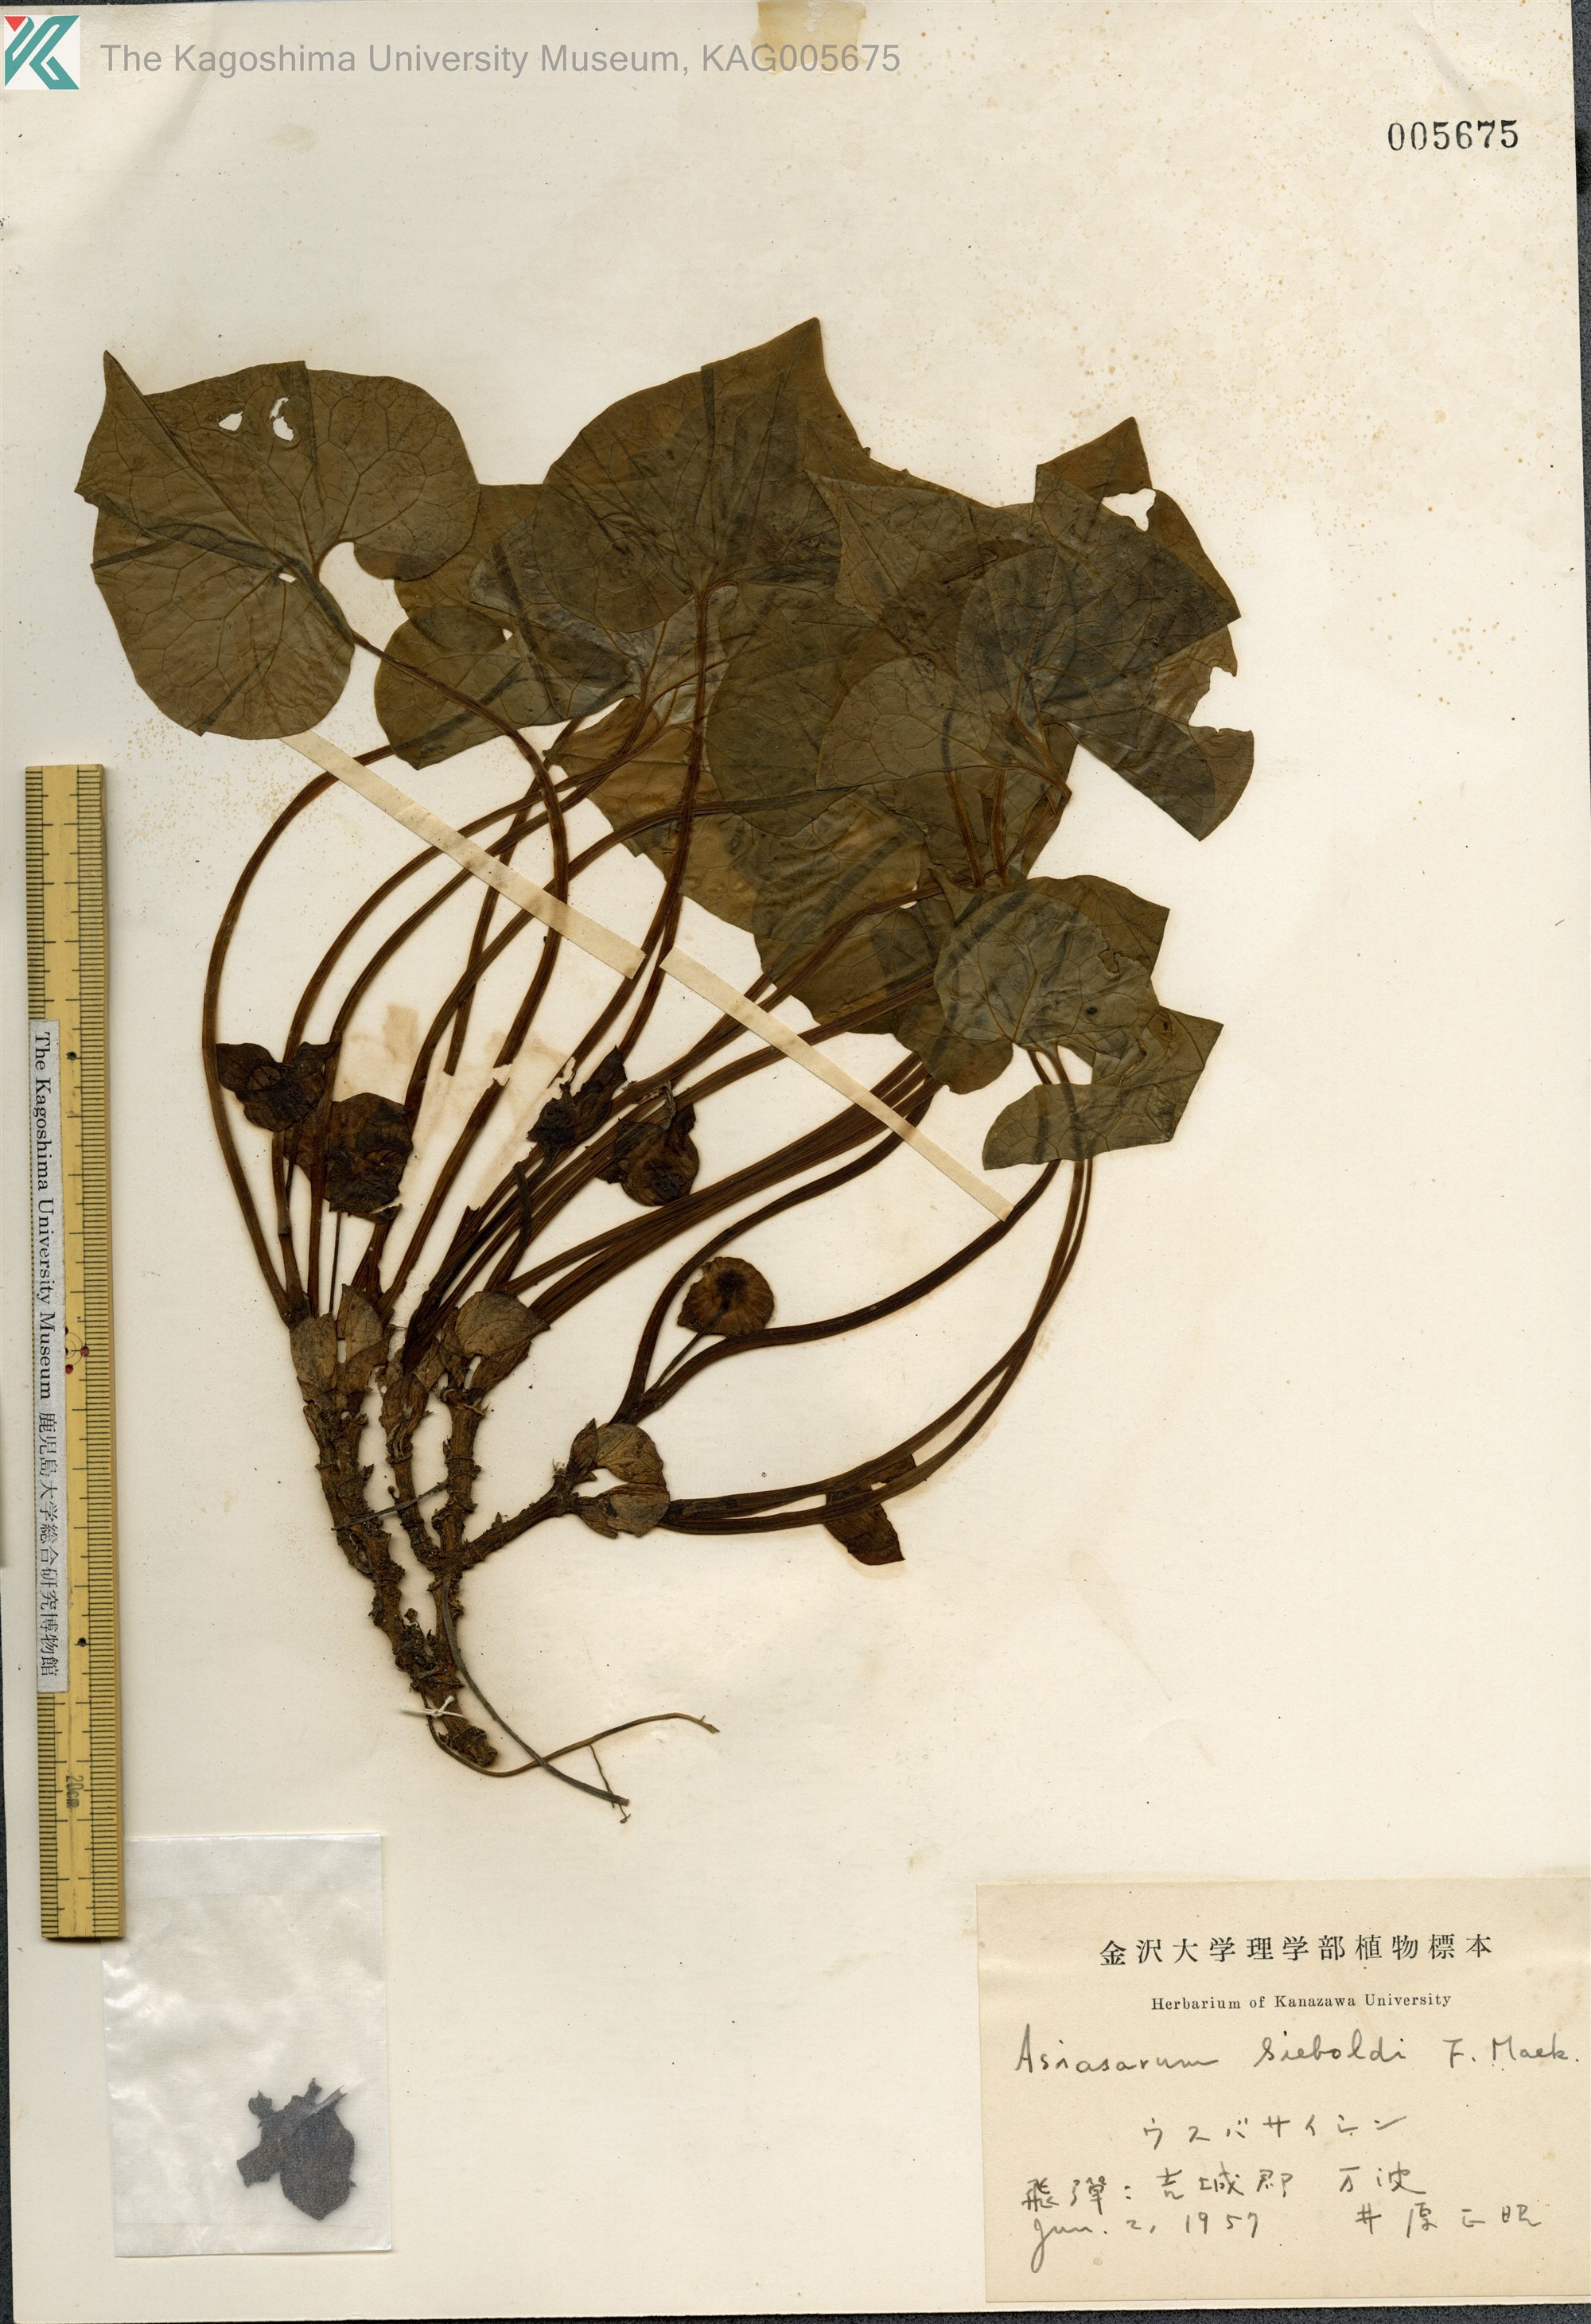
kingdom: Plantae
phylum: Tracheophyta
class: Magnoliopsida
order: Piperales
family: Aristolochiaceae
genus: Asarum
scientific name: Asarum sieboldii
